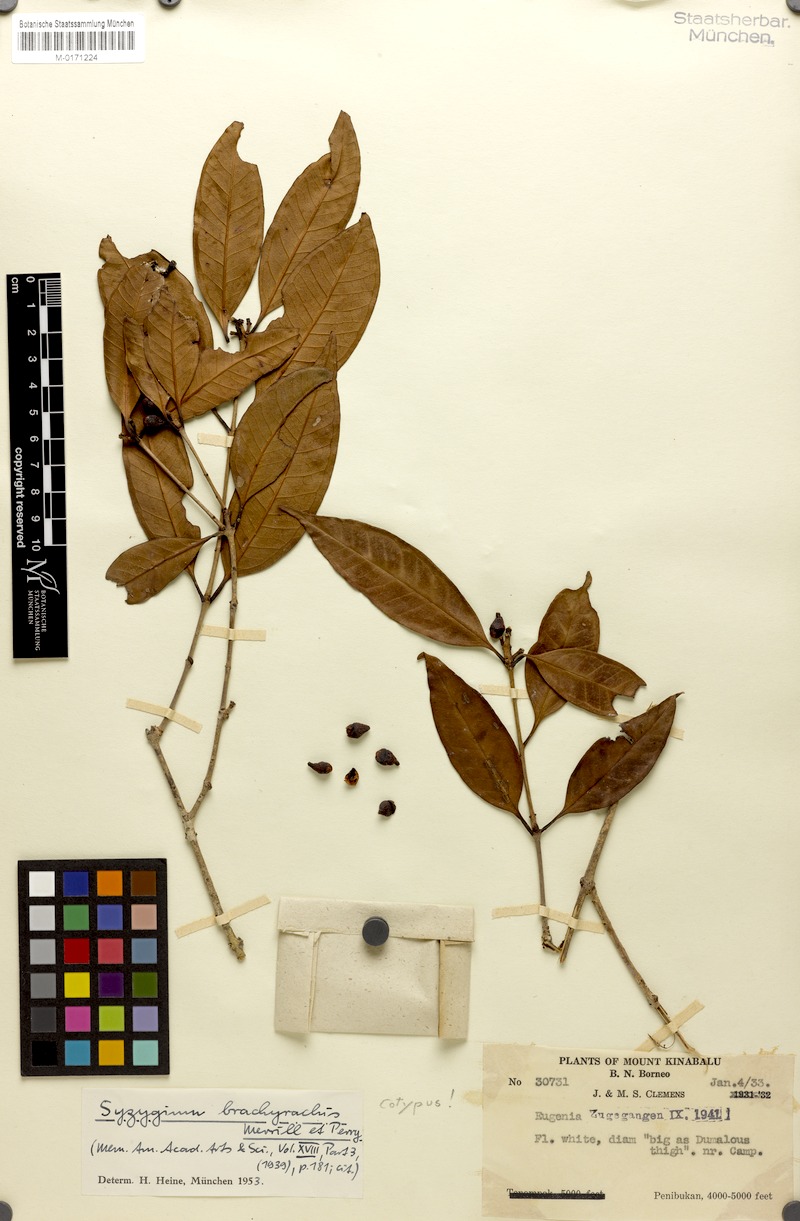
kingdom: Plantae
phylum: Tracheophyta
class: Magnoliopsida
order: Myrtales
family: Myrtaceae
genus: Syzygium
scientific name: Syzygium brachyrachis
